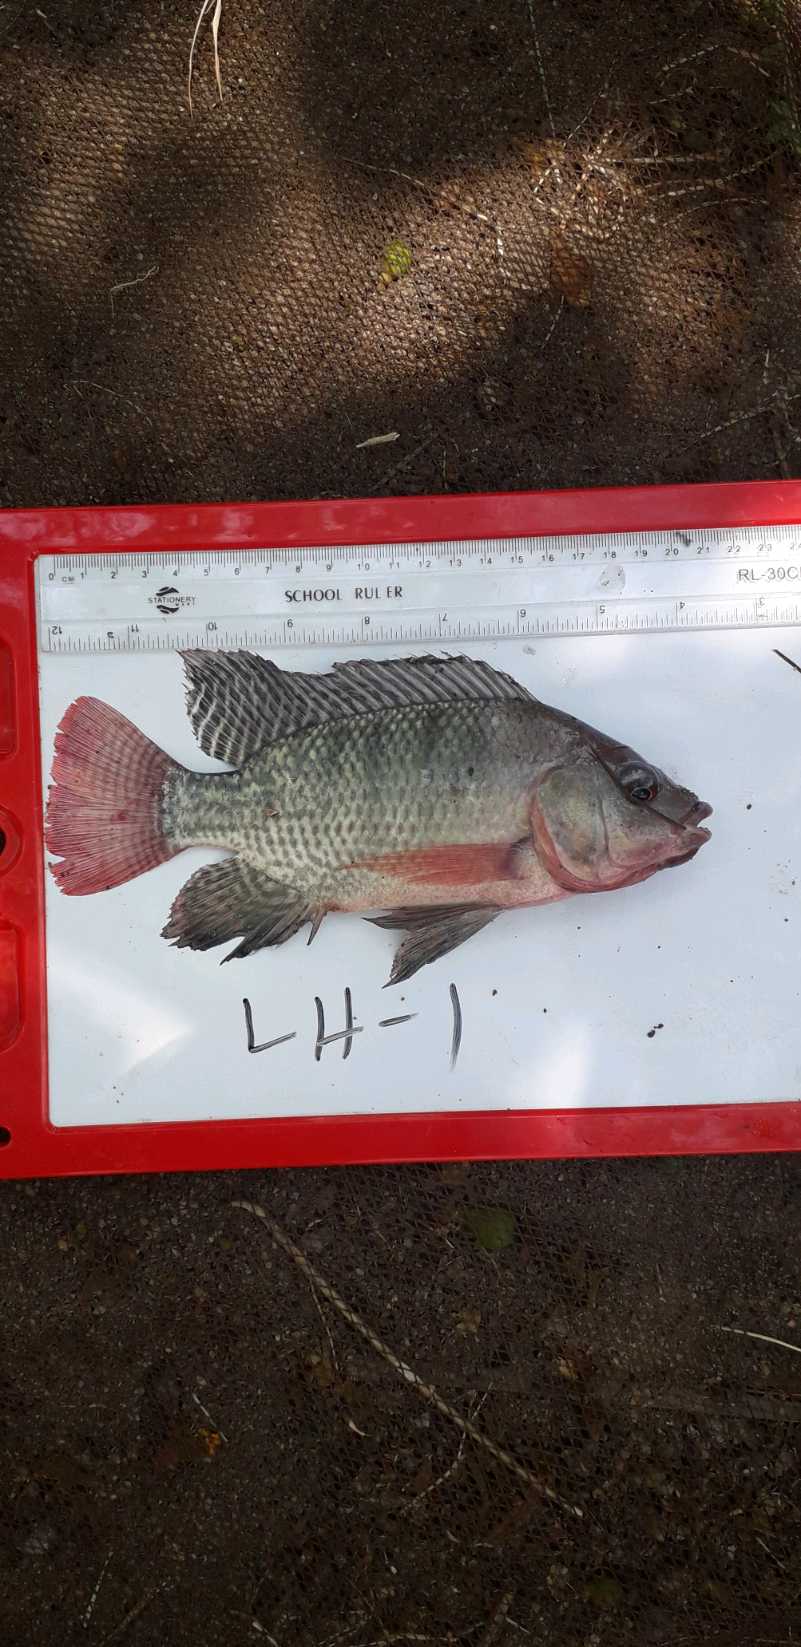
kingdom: Animalia
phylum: Chordata
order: Perciformes
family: Cichlidae
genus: Oreochromis
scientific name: Oreochromis niloticus
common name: Nile tilapia
